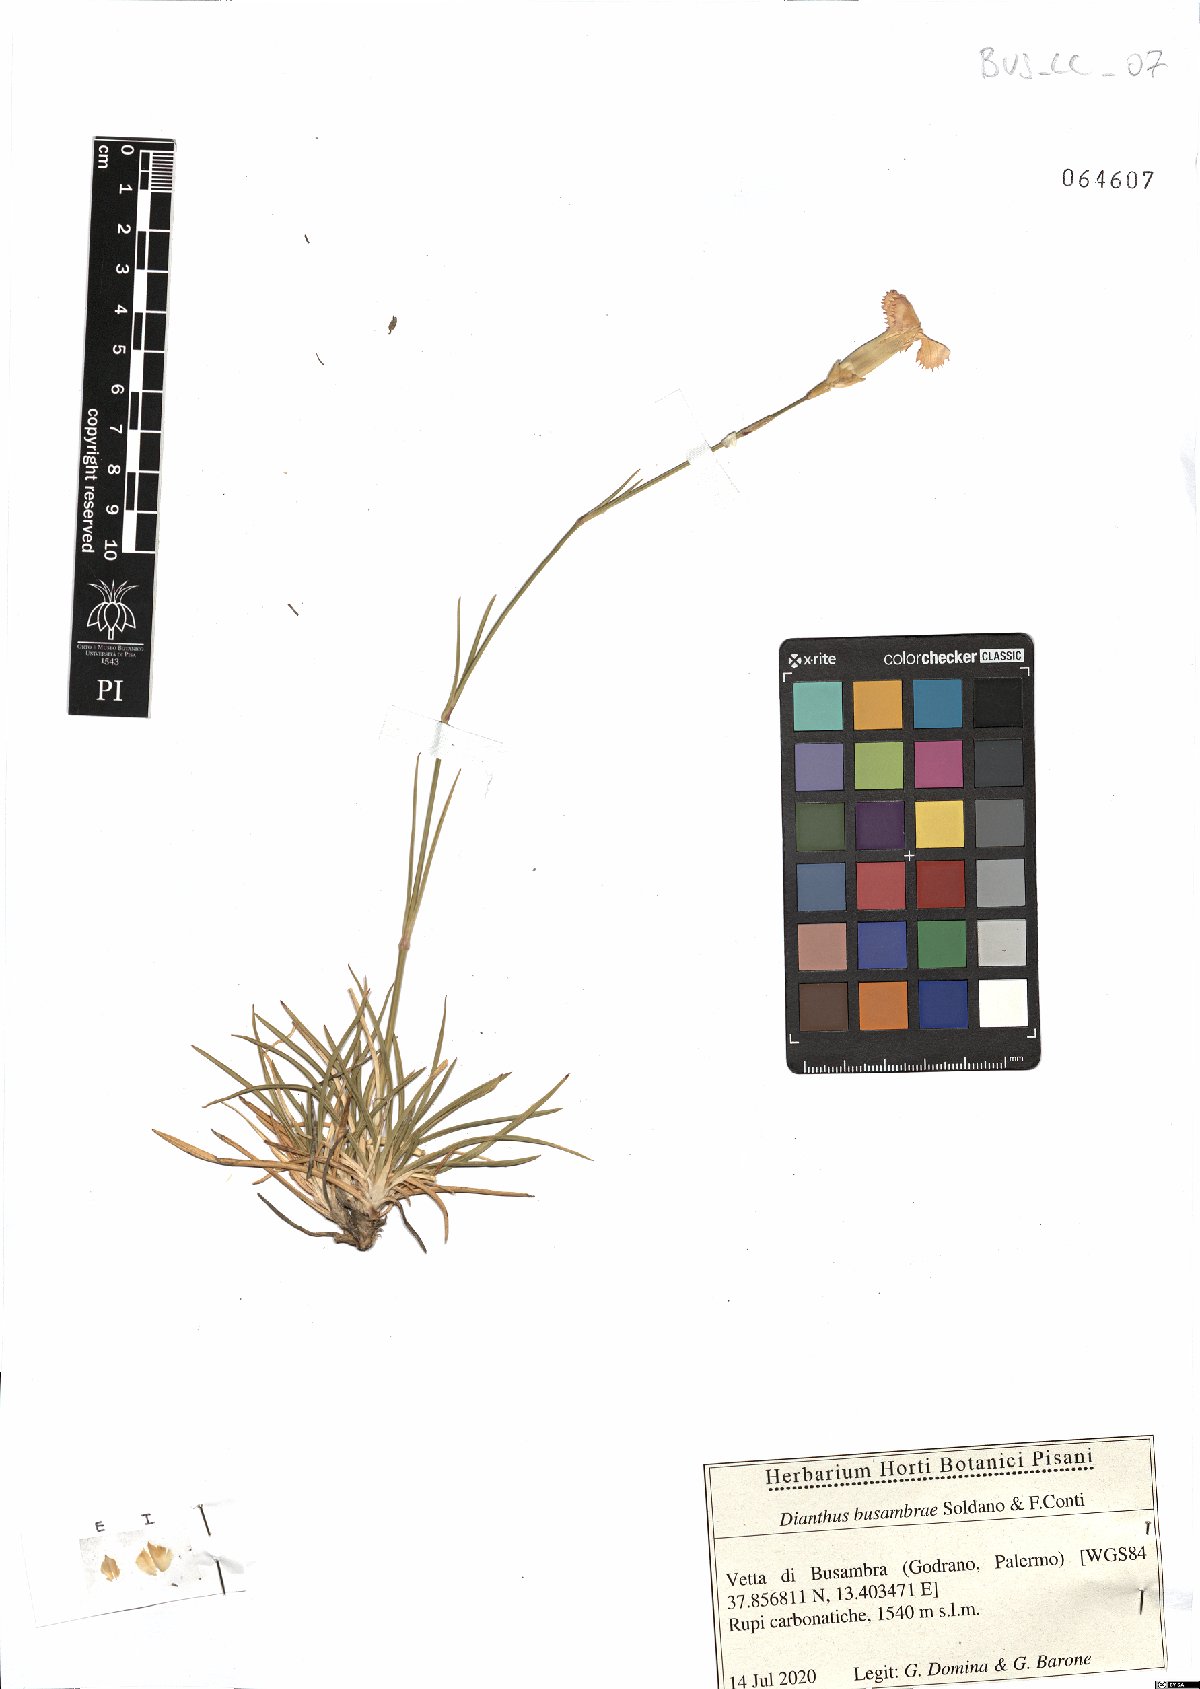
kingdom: Plantae
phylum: Tracheophyta
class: Magnoliopsida
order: Caryophyllales
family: Caryophyllaceae
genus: Dianthus
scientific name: Dianthus busambrae
